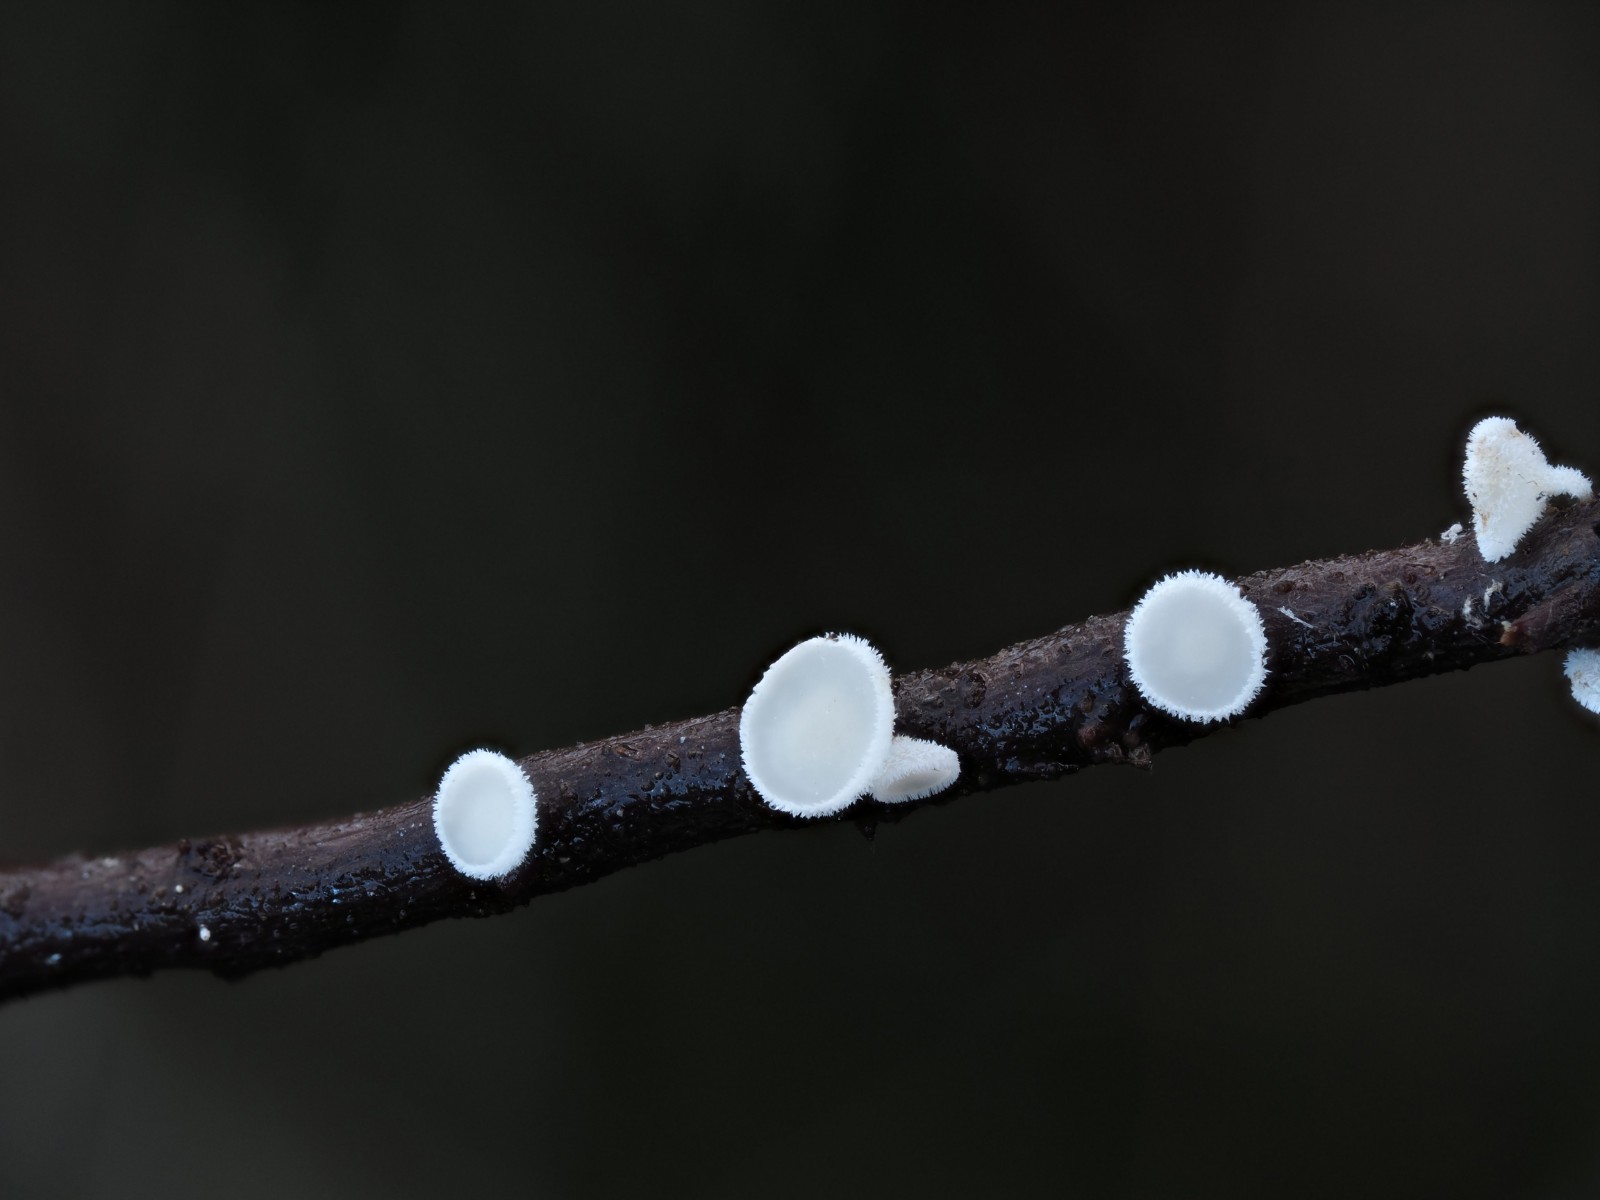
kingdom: Fungi
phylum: Ascomycota
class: Leotiomycetes
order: Helotiales
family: Lachnaceae
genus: Lachnum
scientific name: Lachnum
